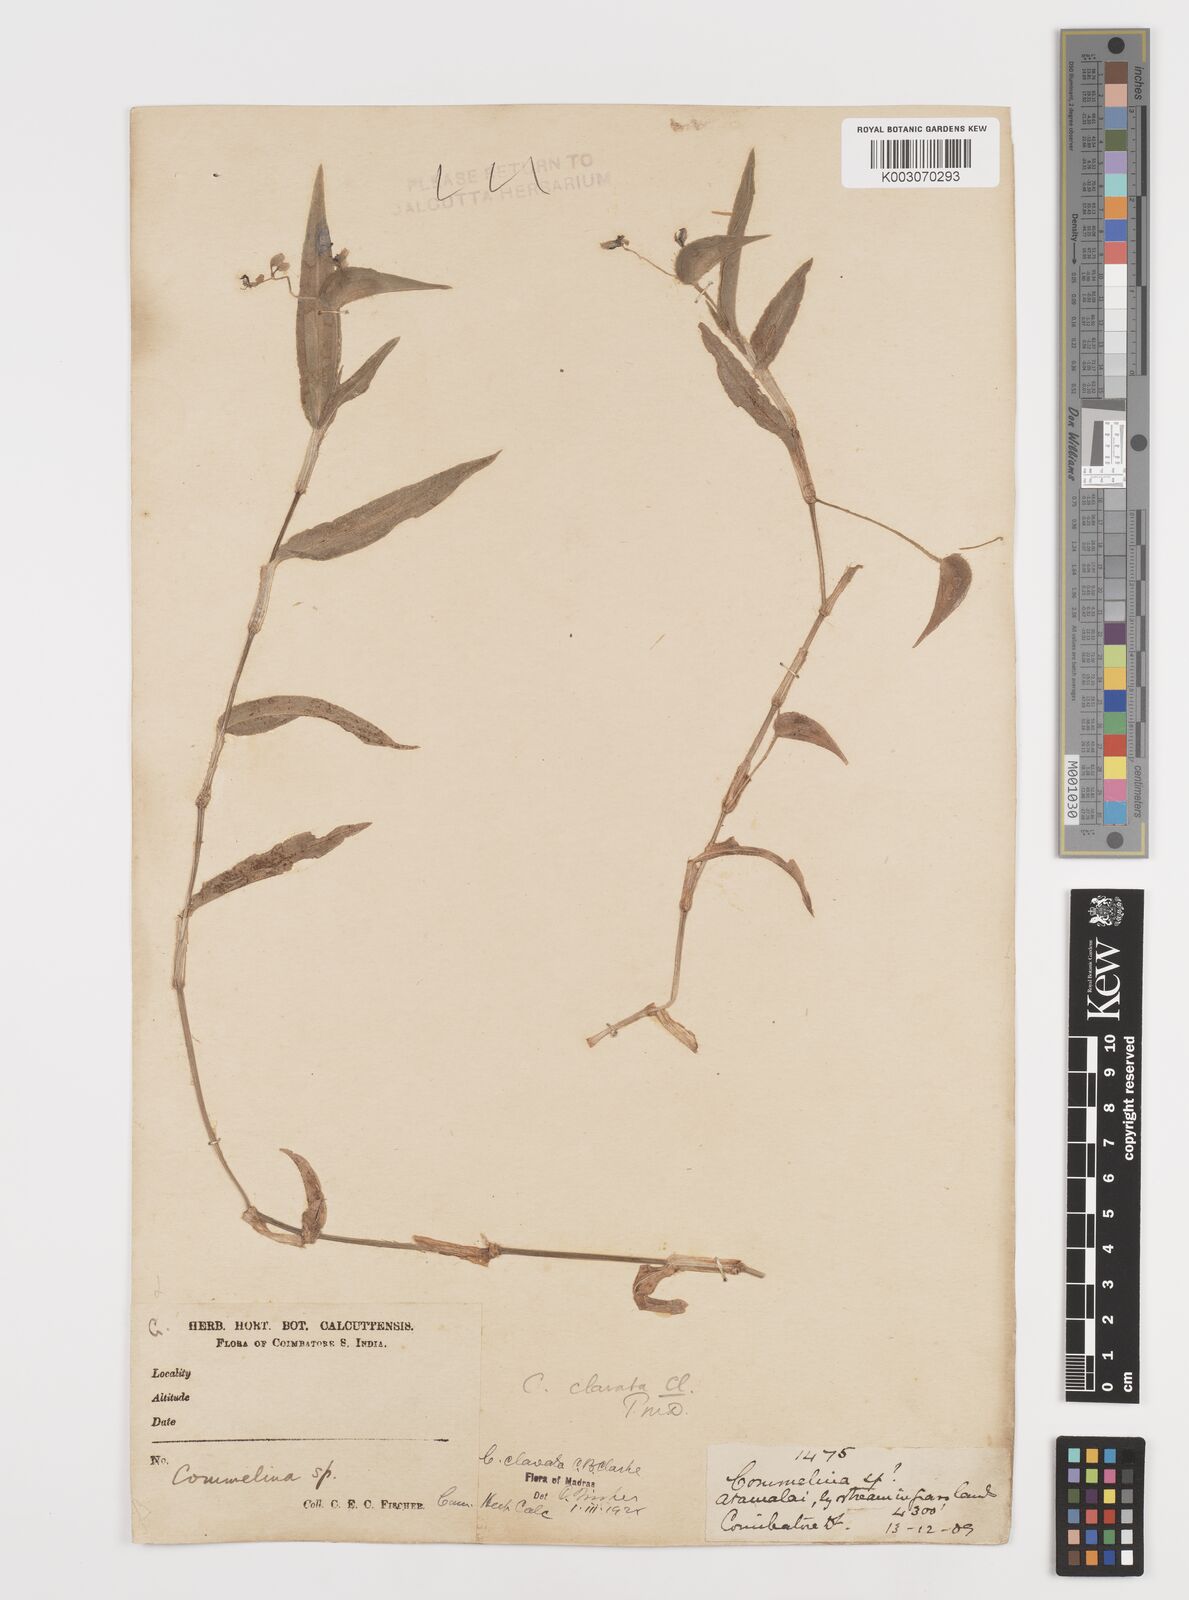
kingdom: Plantae
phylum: Tracheophyta
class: Liliopsida
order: Commelinales
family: Commelinaceae
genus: Commelina
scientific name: Commelina clavata
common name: Willow leaved dayflower
